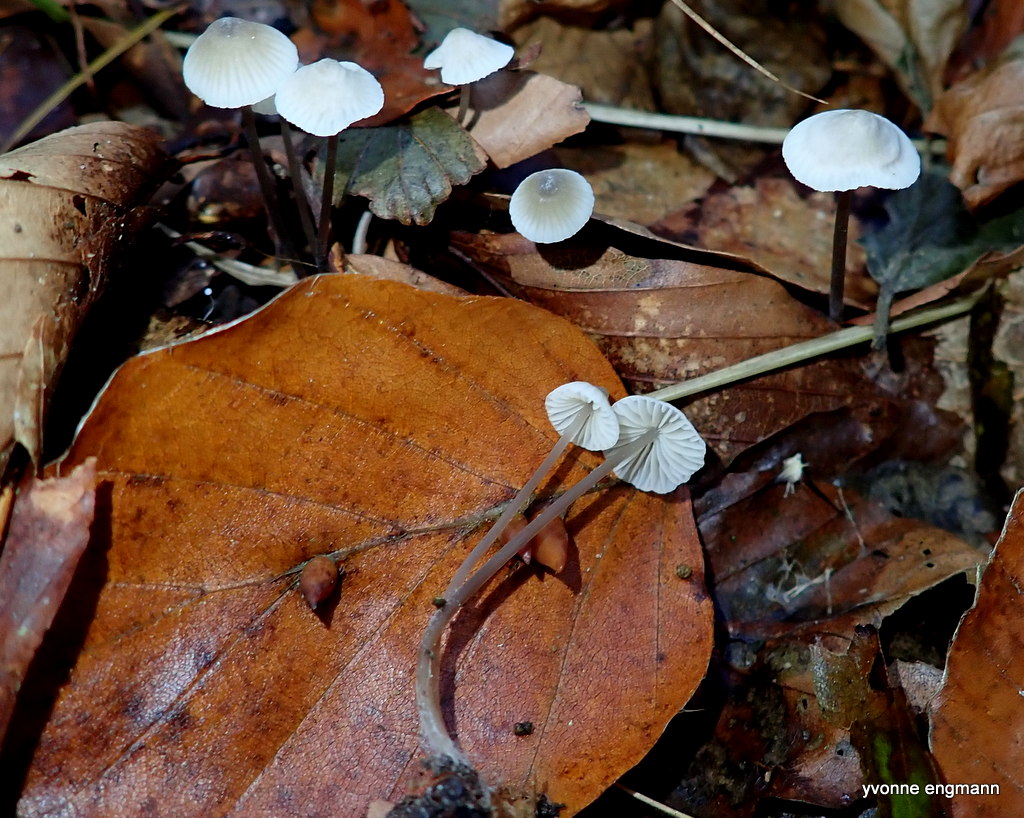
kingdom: Fungi
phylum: Basidiomycota
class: Agaricomycetes
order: Agaricales
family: Mycenaceae
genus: Mycena
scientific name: Mycena flavescens
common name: grågul huesvamp
